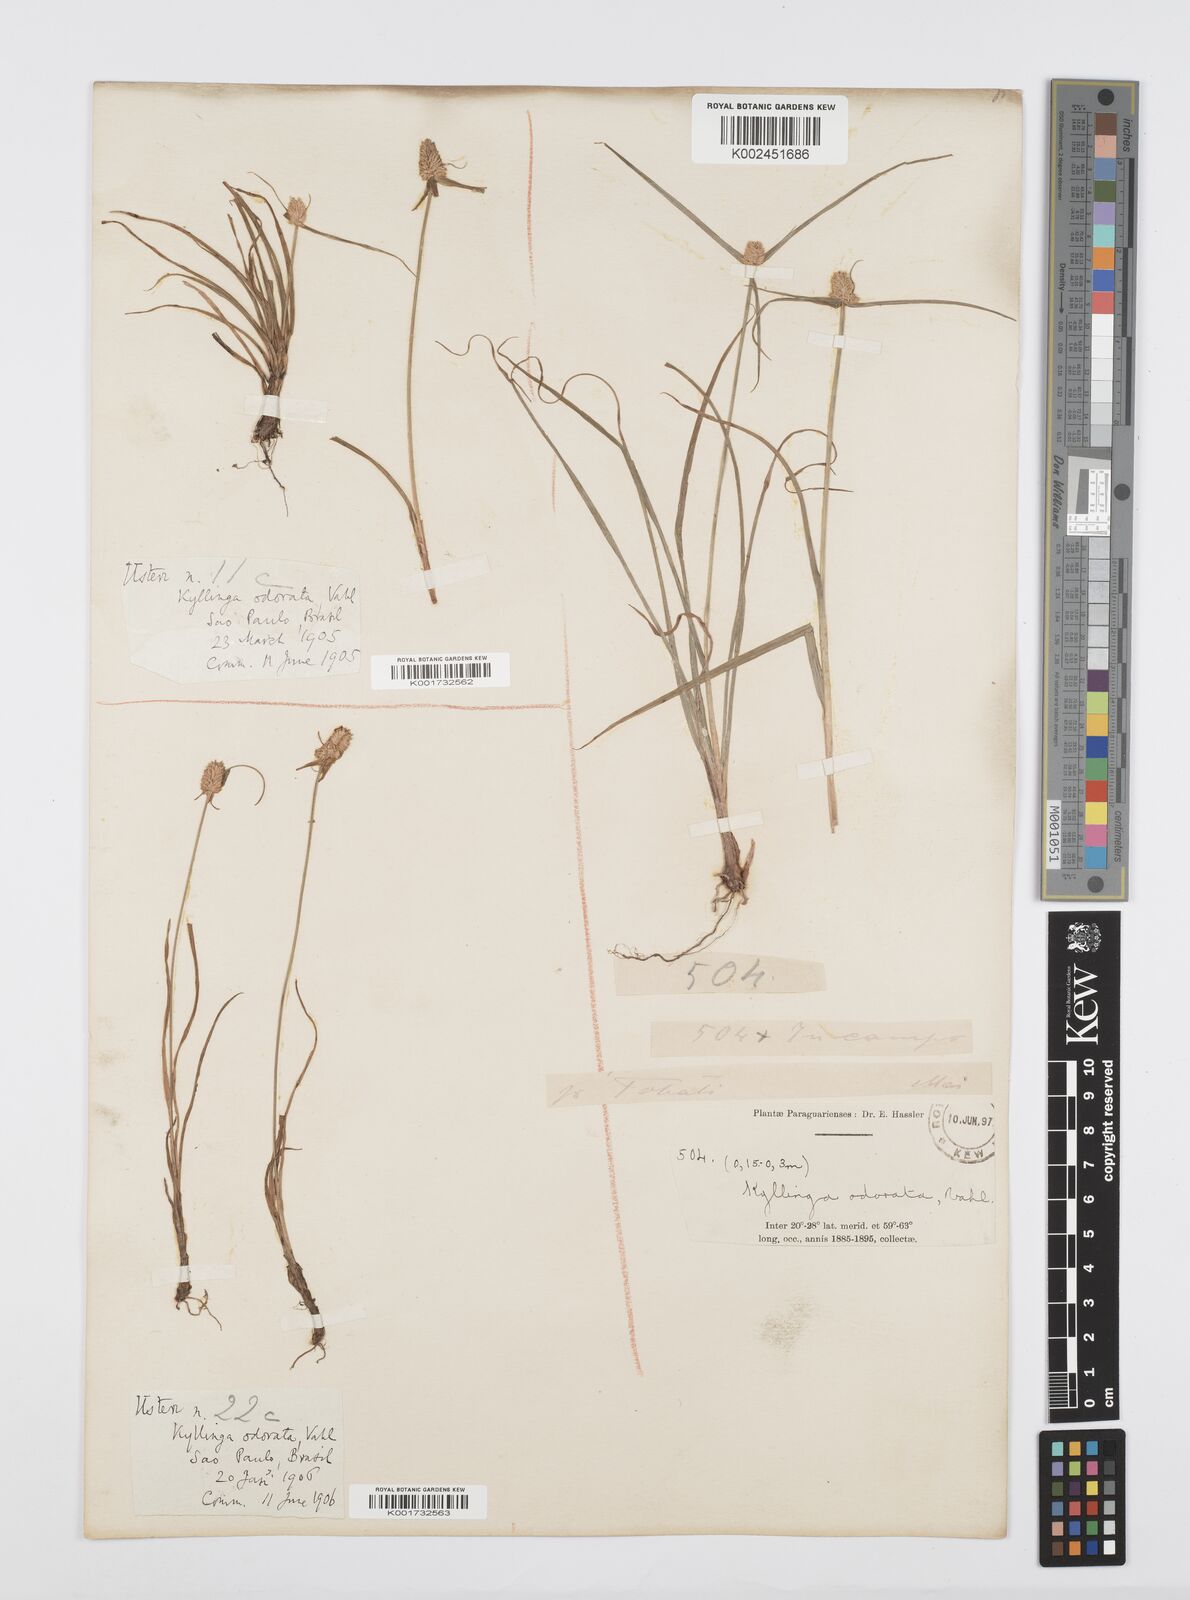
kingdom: Plantae
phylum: Tracheophyta
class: Liliopsida
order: Poales
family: Cyperaceae
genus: Cyperus
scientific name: Cyperus
